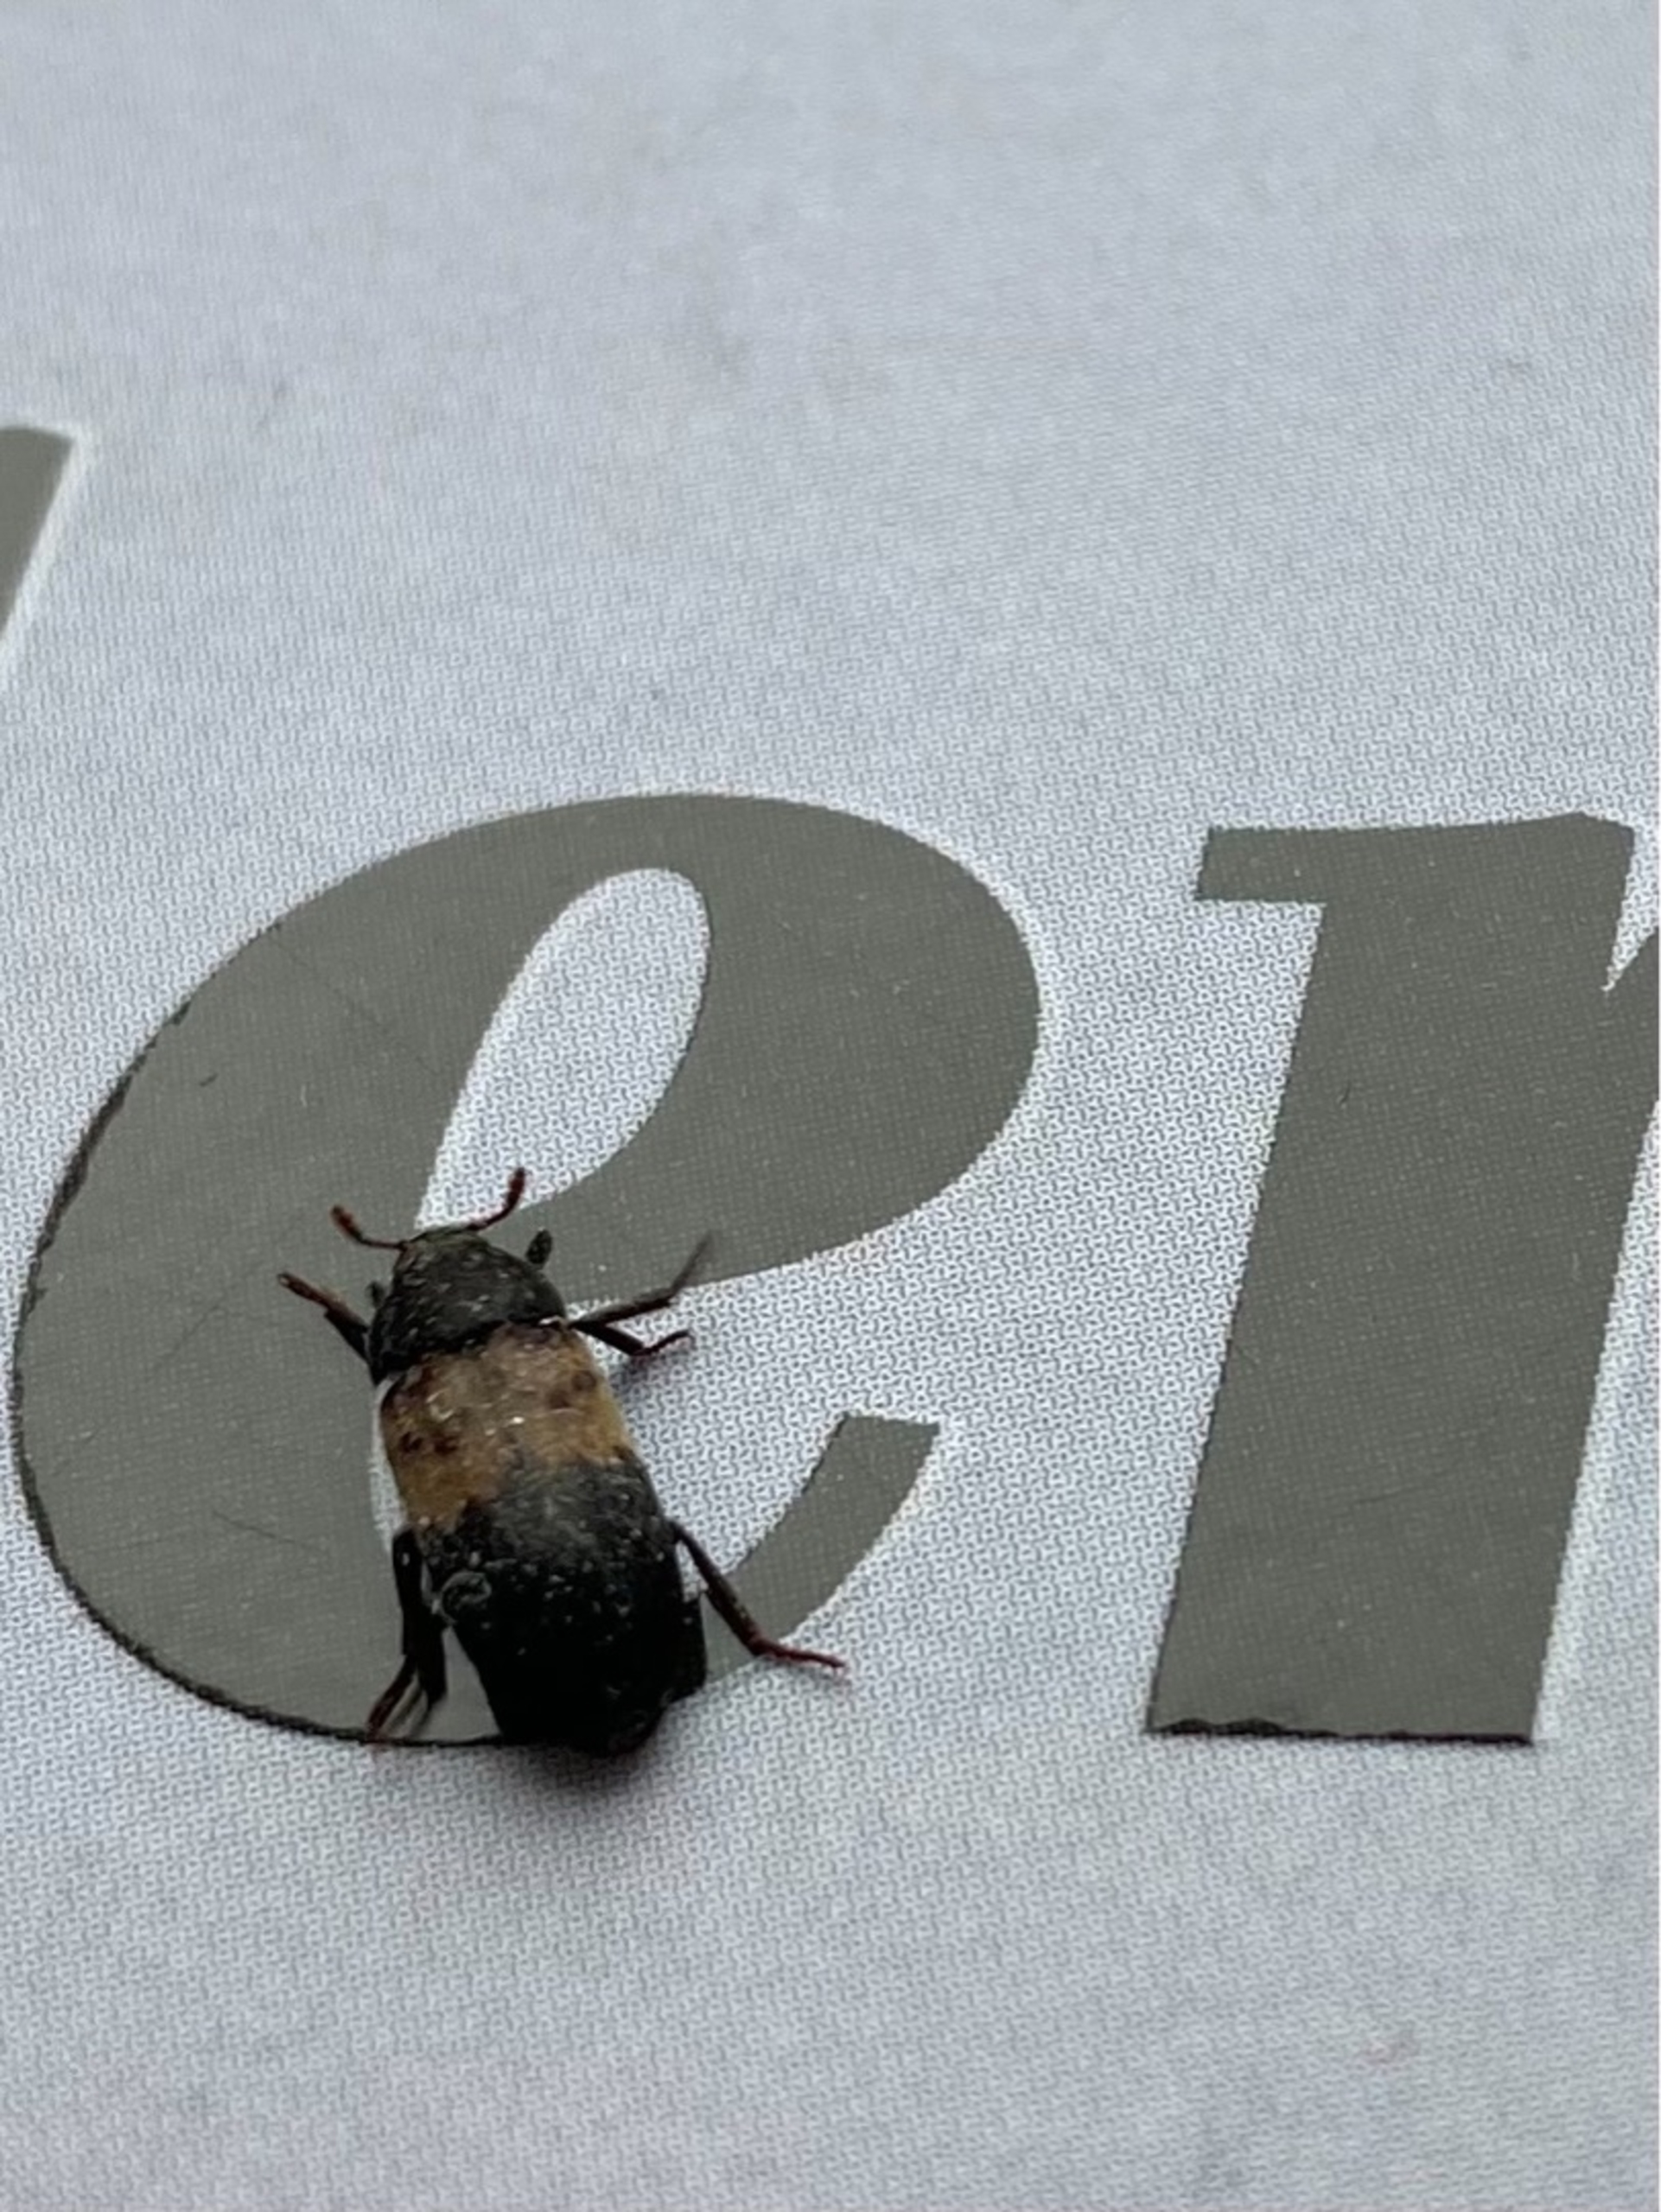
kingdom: Animalia
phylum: Arthropoda
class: Insecta
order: Coleoptera
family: Dermestidae
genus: Dermestes
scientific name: Dermestes lardarius
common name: Flæskeklanner
